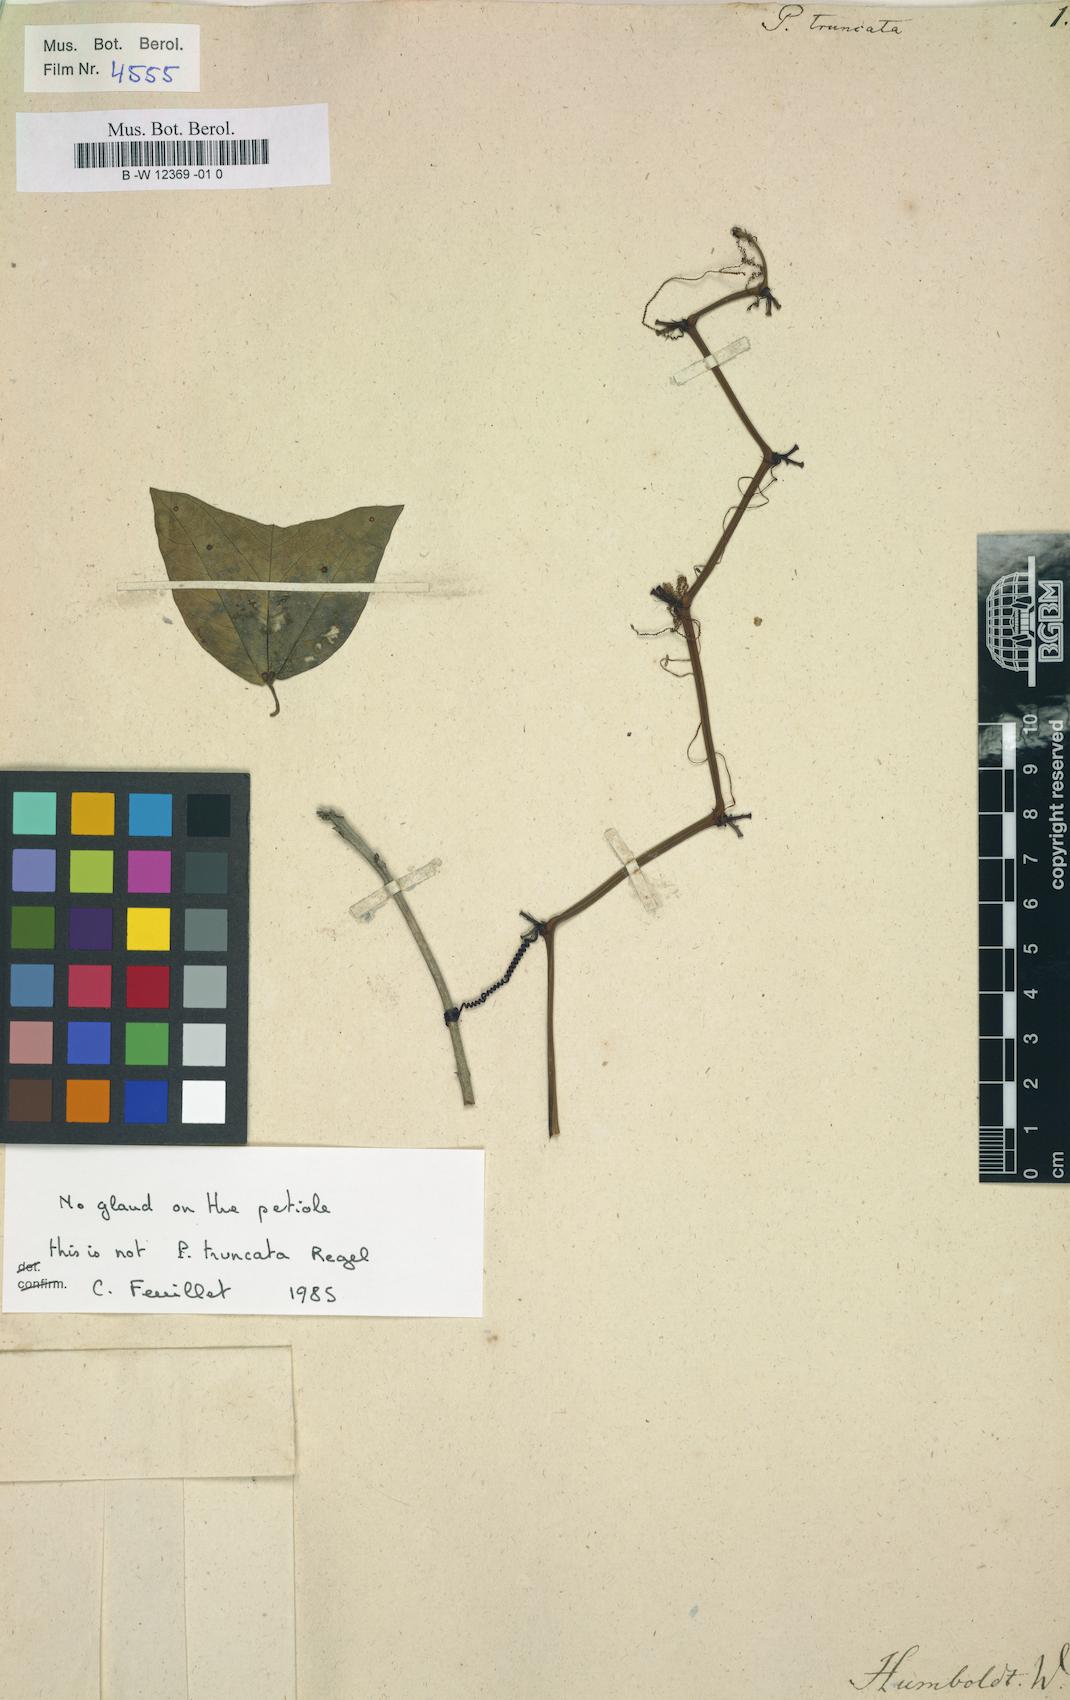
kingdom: Plantae
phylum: Tracheophyta
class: Magnoliopsida
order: Malpighiales
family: Passifloraceae
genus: Passiflora
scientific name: Passiflora truncata
